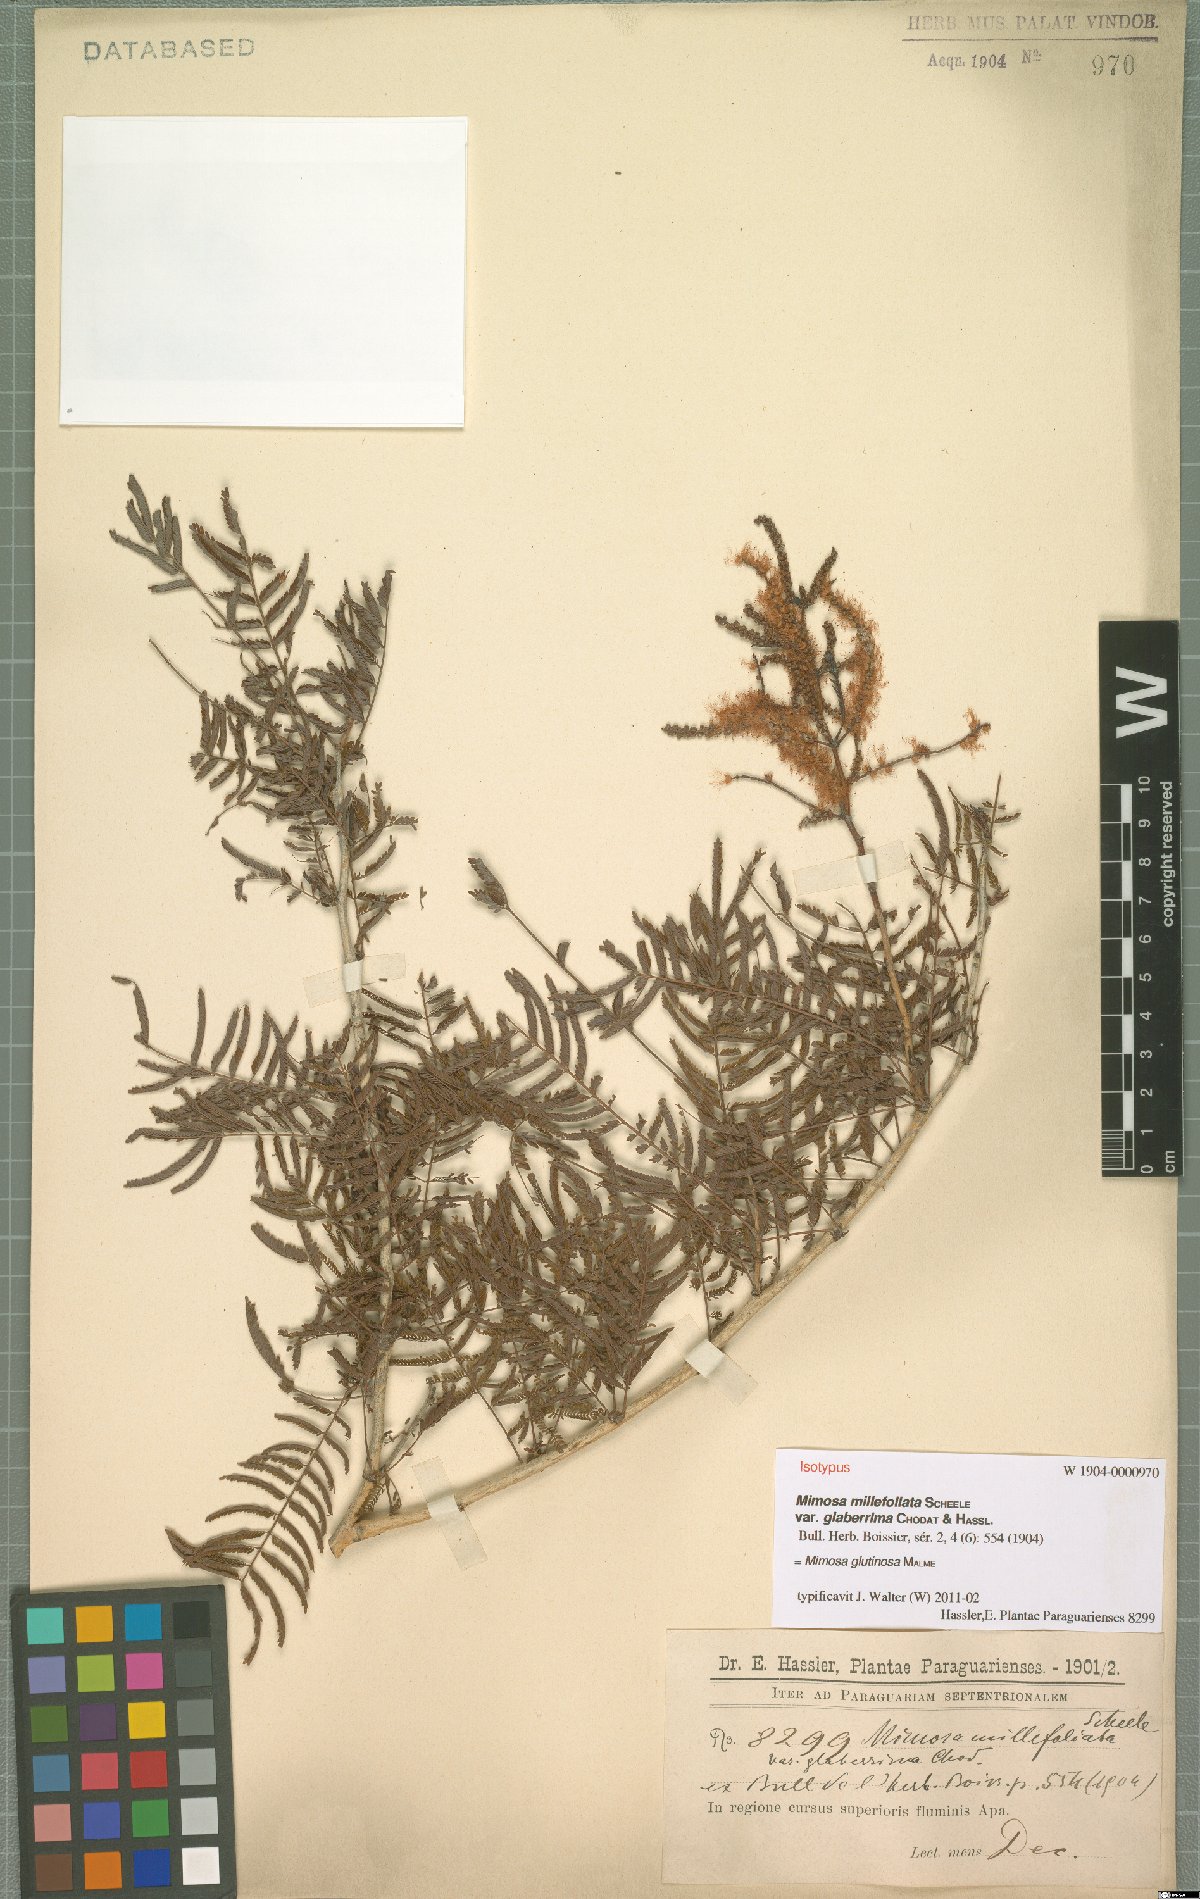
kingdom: Plantae
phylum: Tracheophyta
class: Magnoliopsida
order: Fabales
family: Fabaceae
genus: Mimosa
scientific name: Mimosa glutinosa
